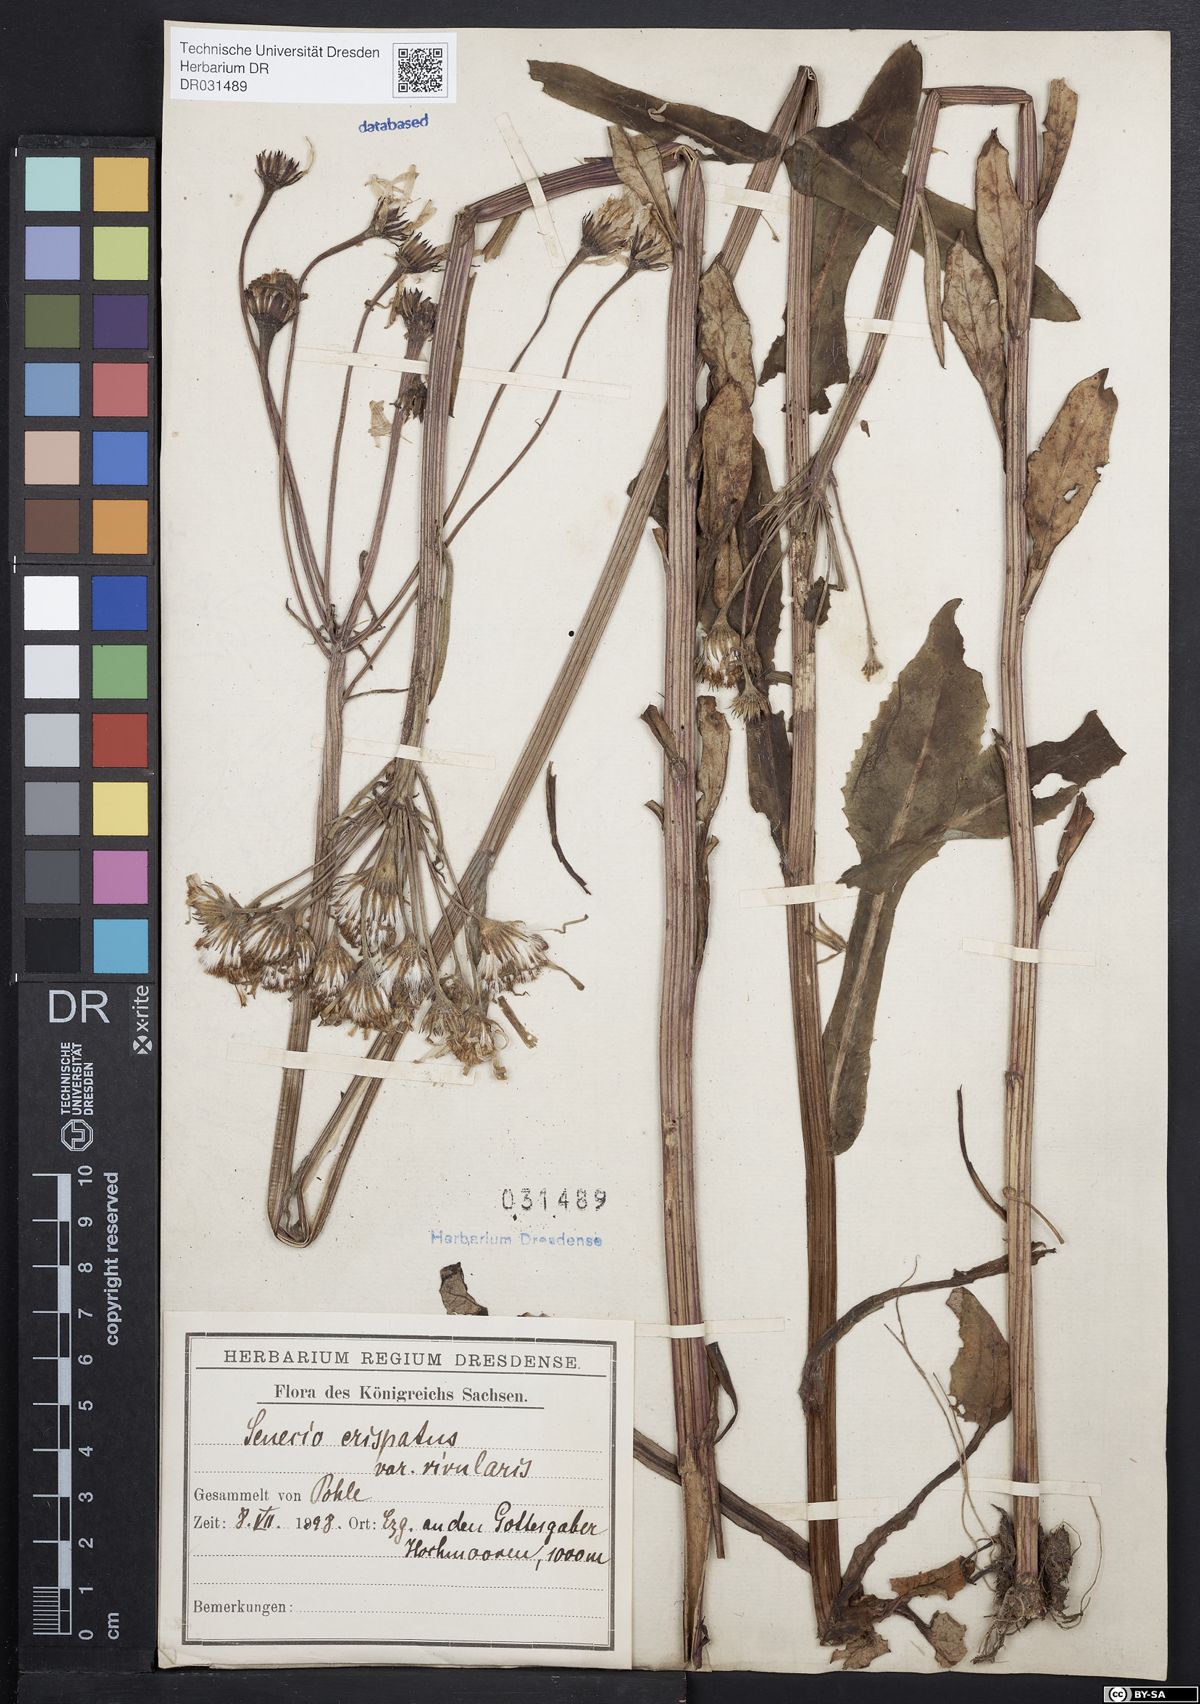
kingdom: Plantae
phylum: Tracheophyta
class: Magnoliopsida
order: Asterales
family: Asteraceae
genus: Tephroseris
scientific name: Tephroseris crispa
